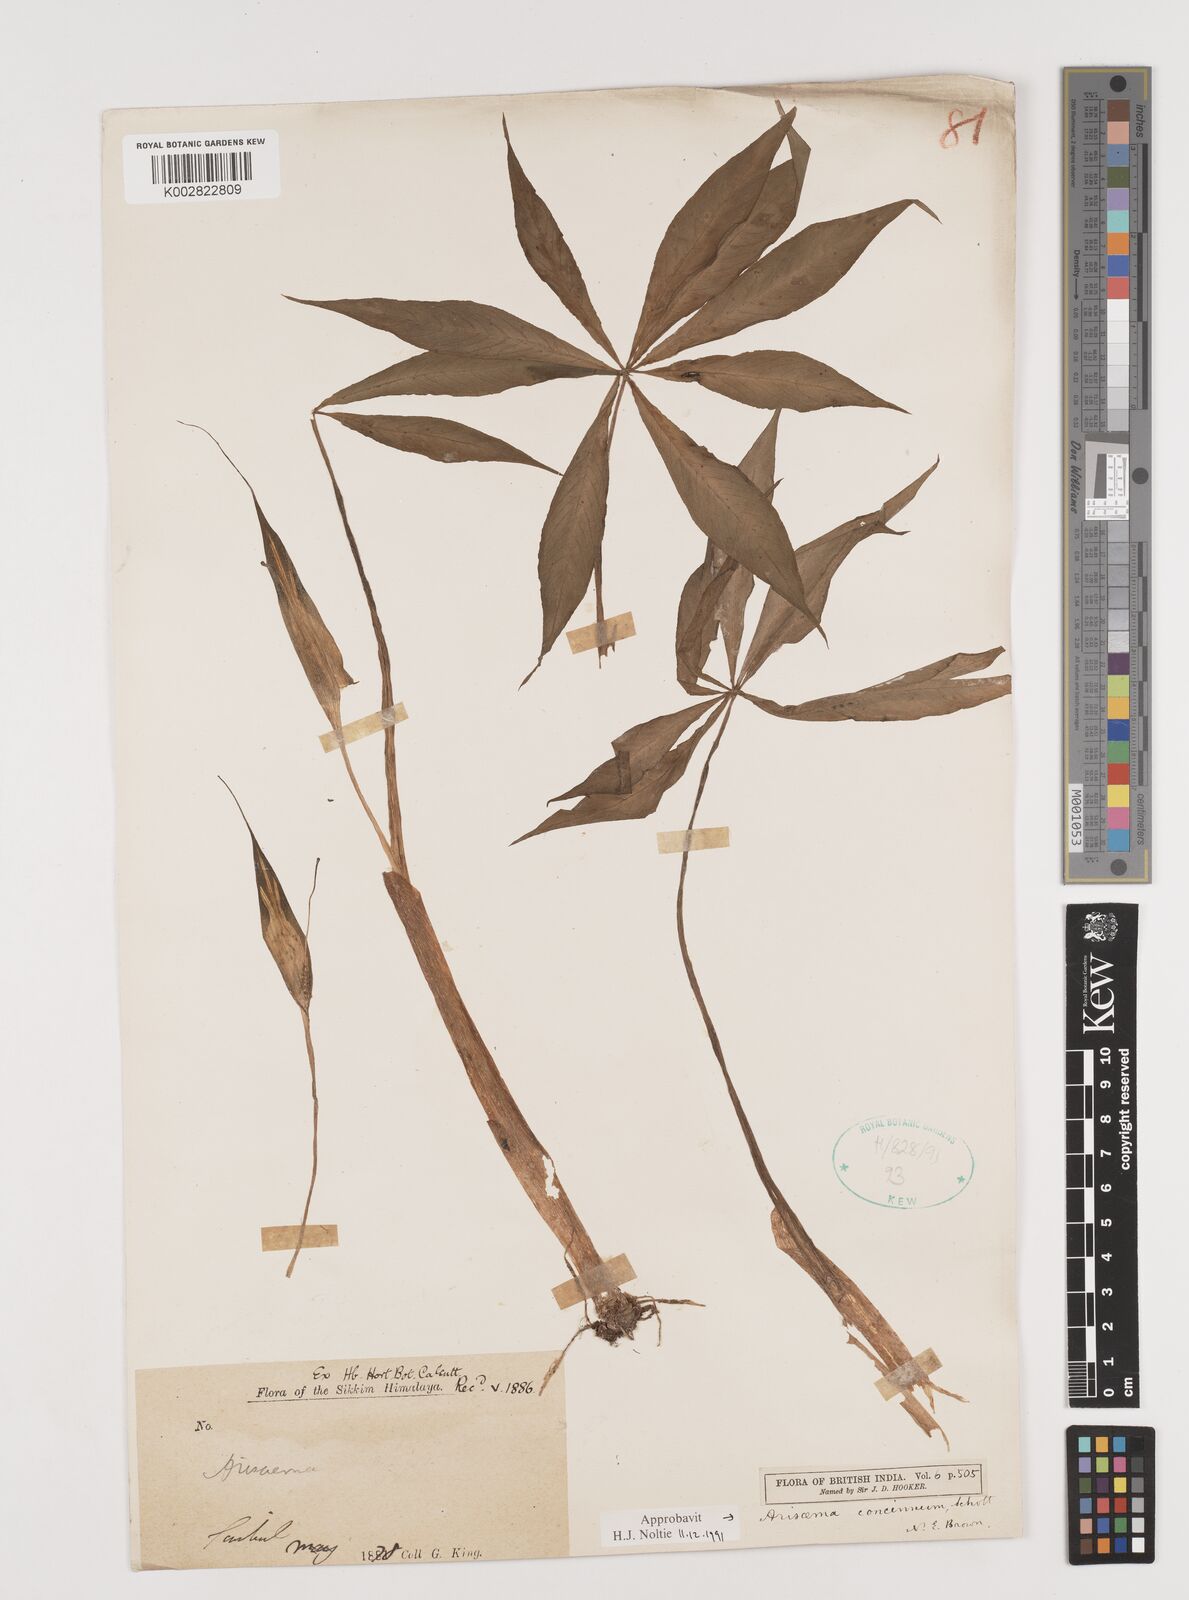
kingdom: Plantae
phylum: Tracheophyta
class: Liliopsida
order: Alismatales
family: Araceae
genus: Arisaema
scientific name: Arisaema concinnum
